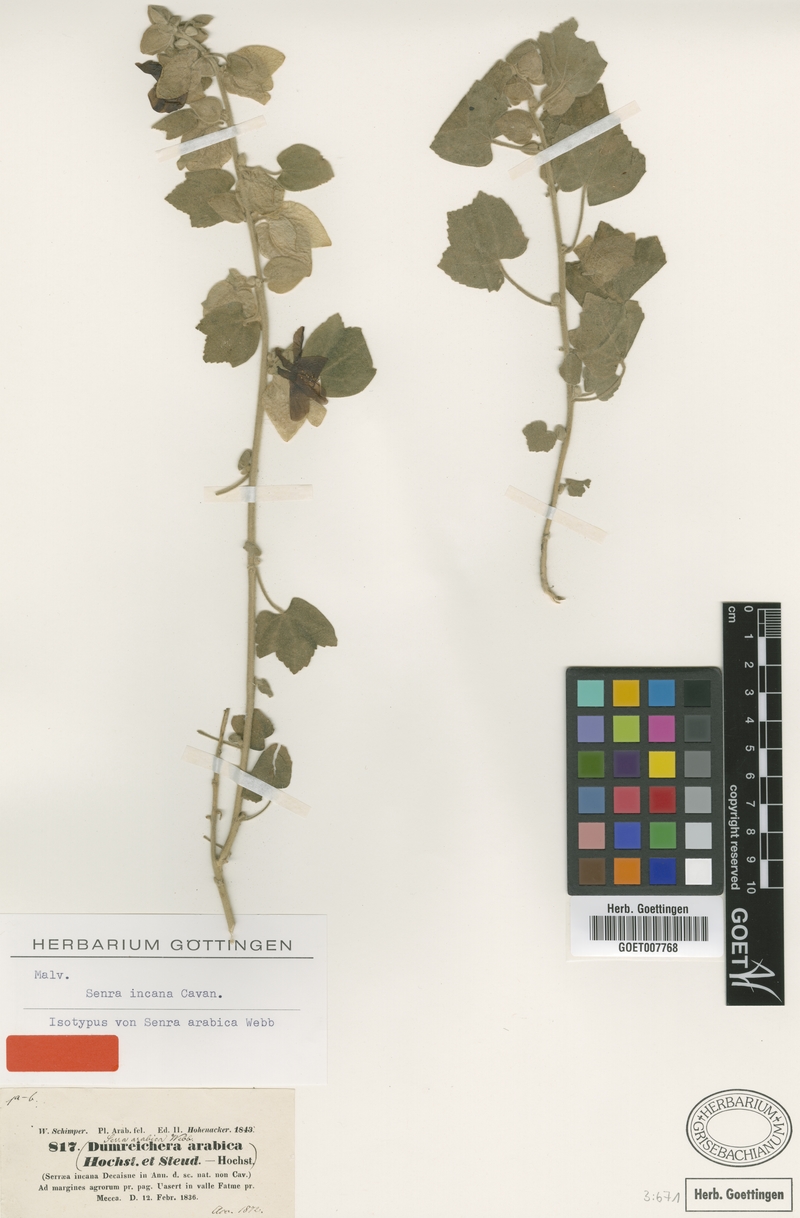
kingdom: Plantae
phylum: Tracheophyta
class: Magnoliopsida
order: Malvales
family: Malvaceae
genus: Senra
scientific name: Senra incana
